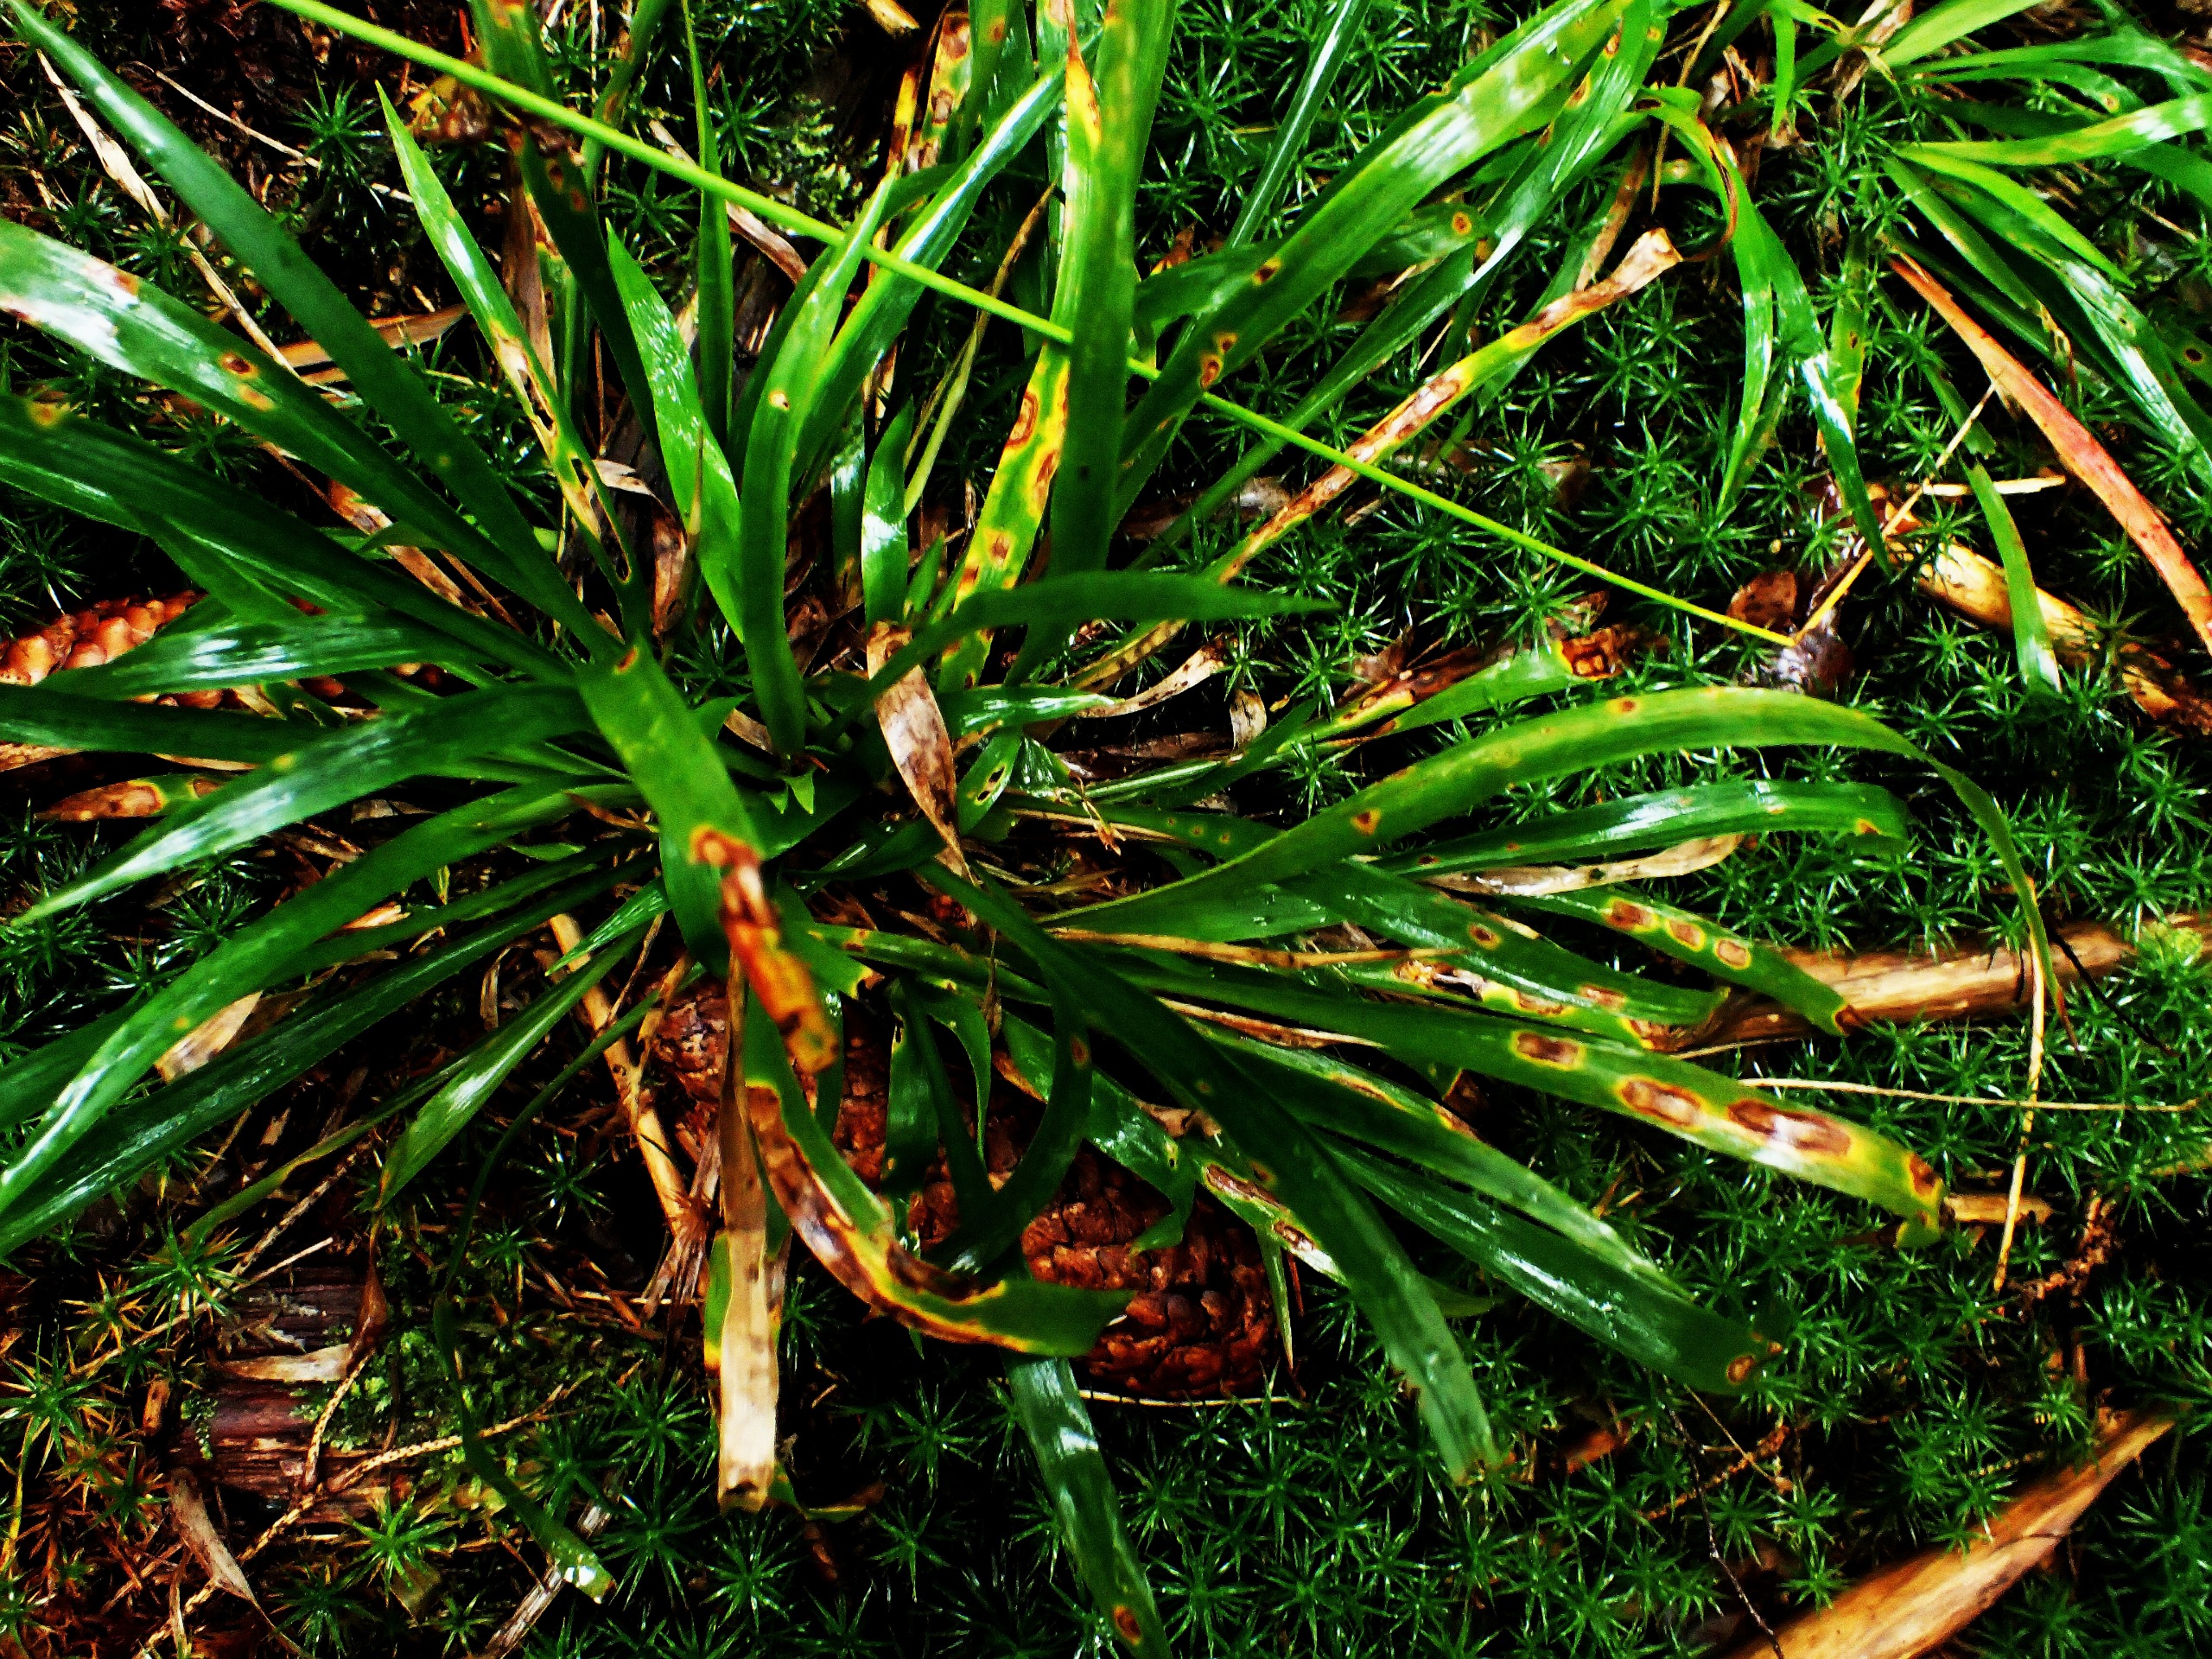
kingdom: Plantae
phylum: Tracheophyta
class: Liliopsida
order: Poales
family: Juncaceae
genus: Luzula
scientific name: Luzula pilosa
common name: Håret frytle
